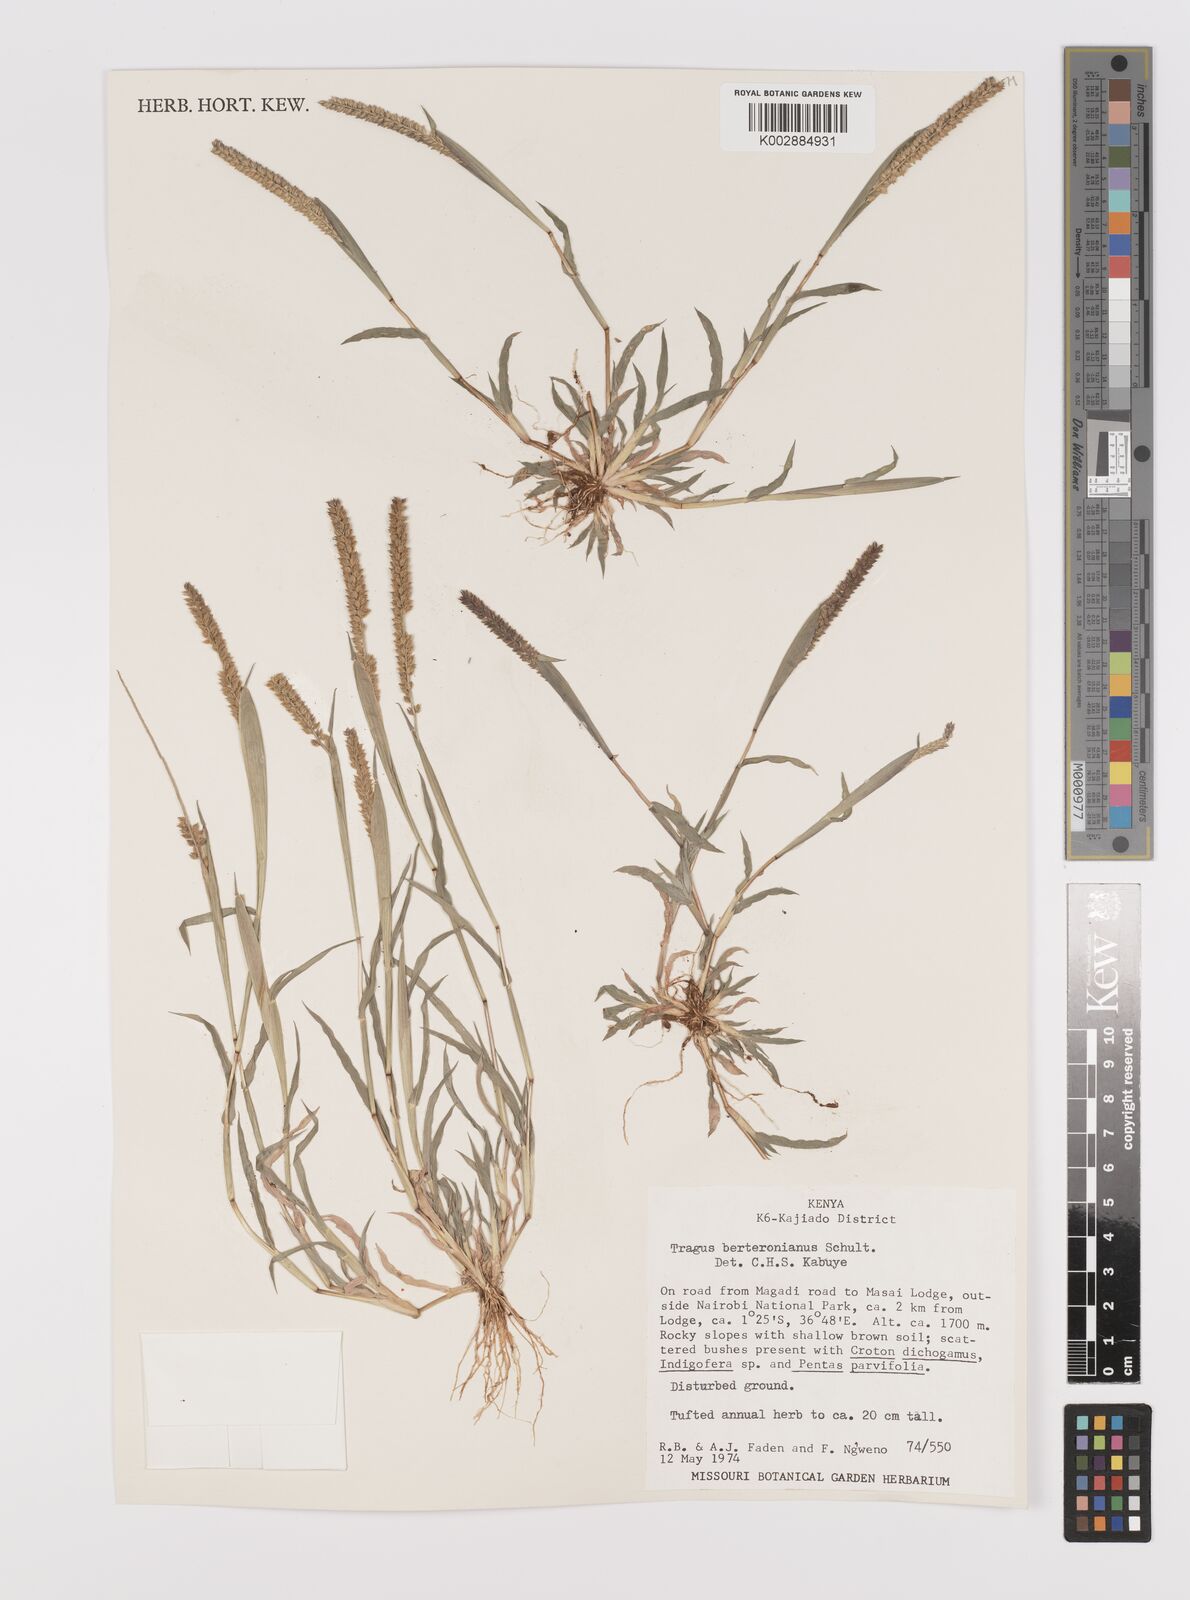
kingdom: Plantae
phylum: Tracheophyta
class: Liliopsida
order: Poales
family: Poaceae
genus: Tragus
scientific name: Tragus berteronianus
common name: African bur-grass
